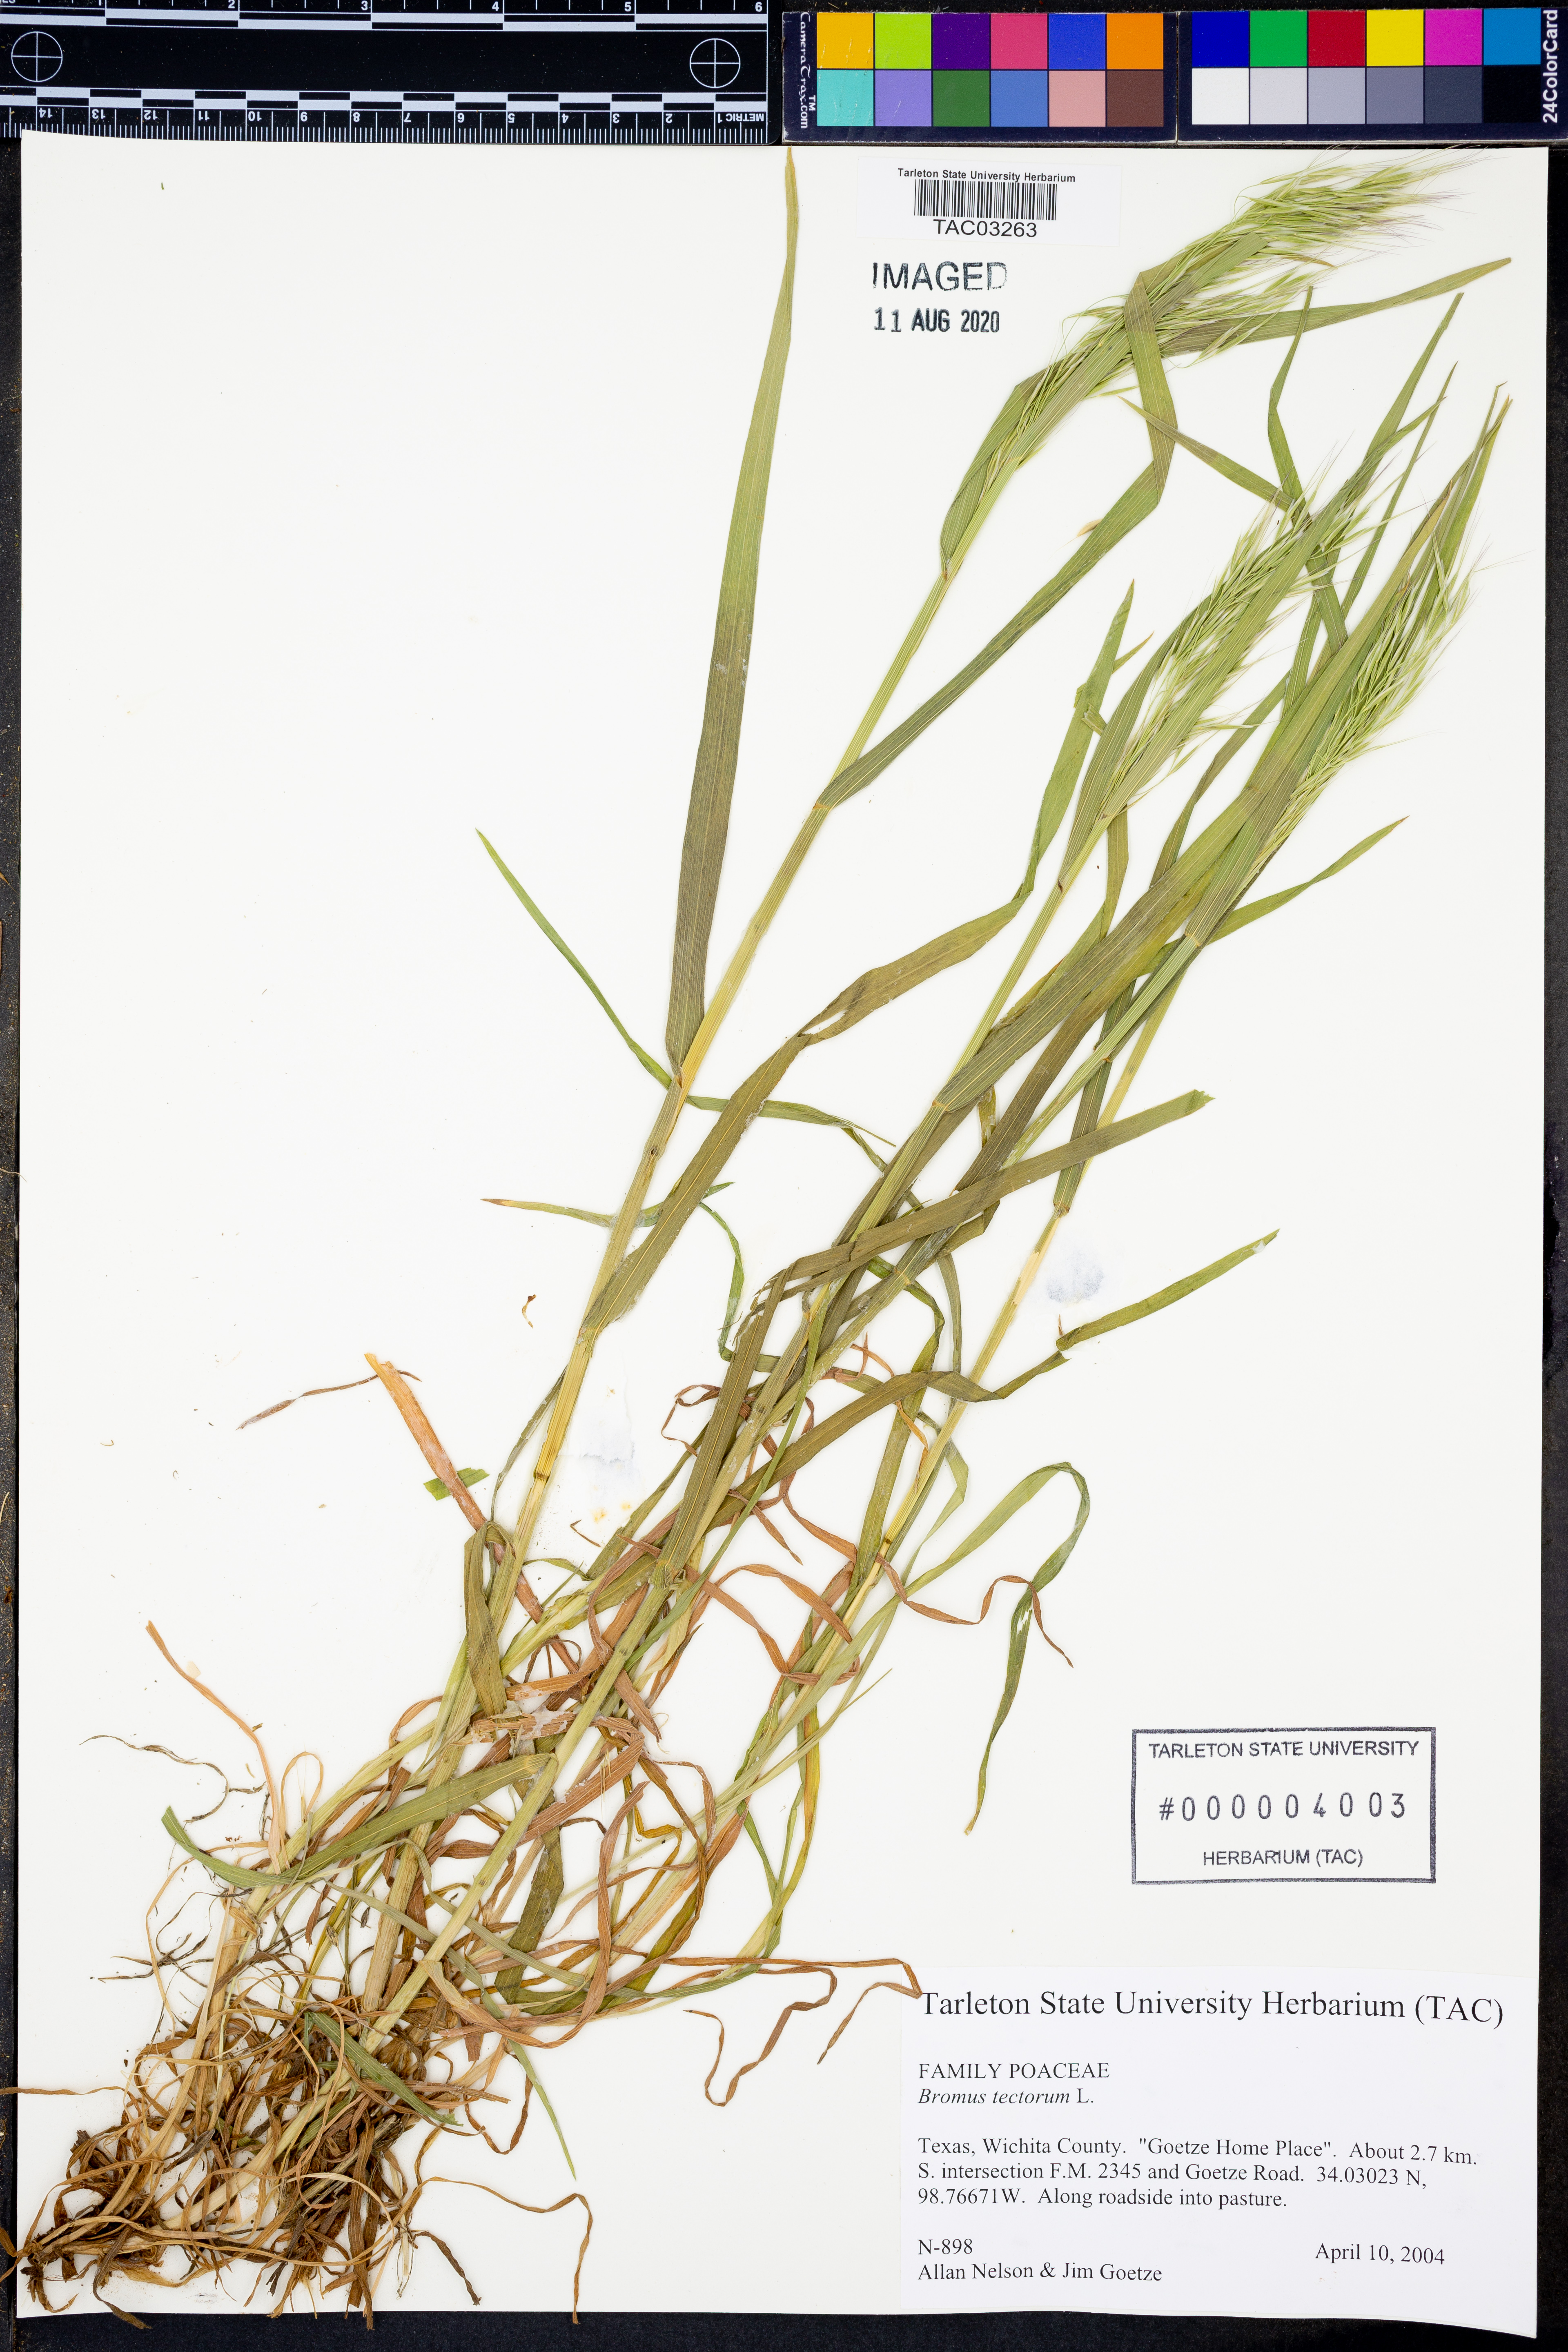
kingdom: Plantae
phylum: Tracheophyta
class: Liliopsida
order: Poales
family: Poaceae
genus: Bromus
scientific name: Bromus tectorum
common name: Cheatgrass
